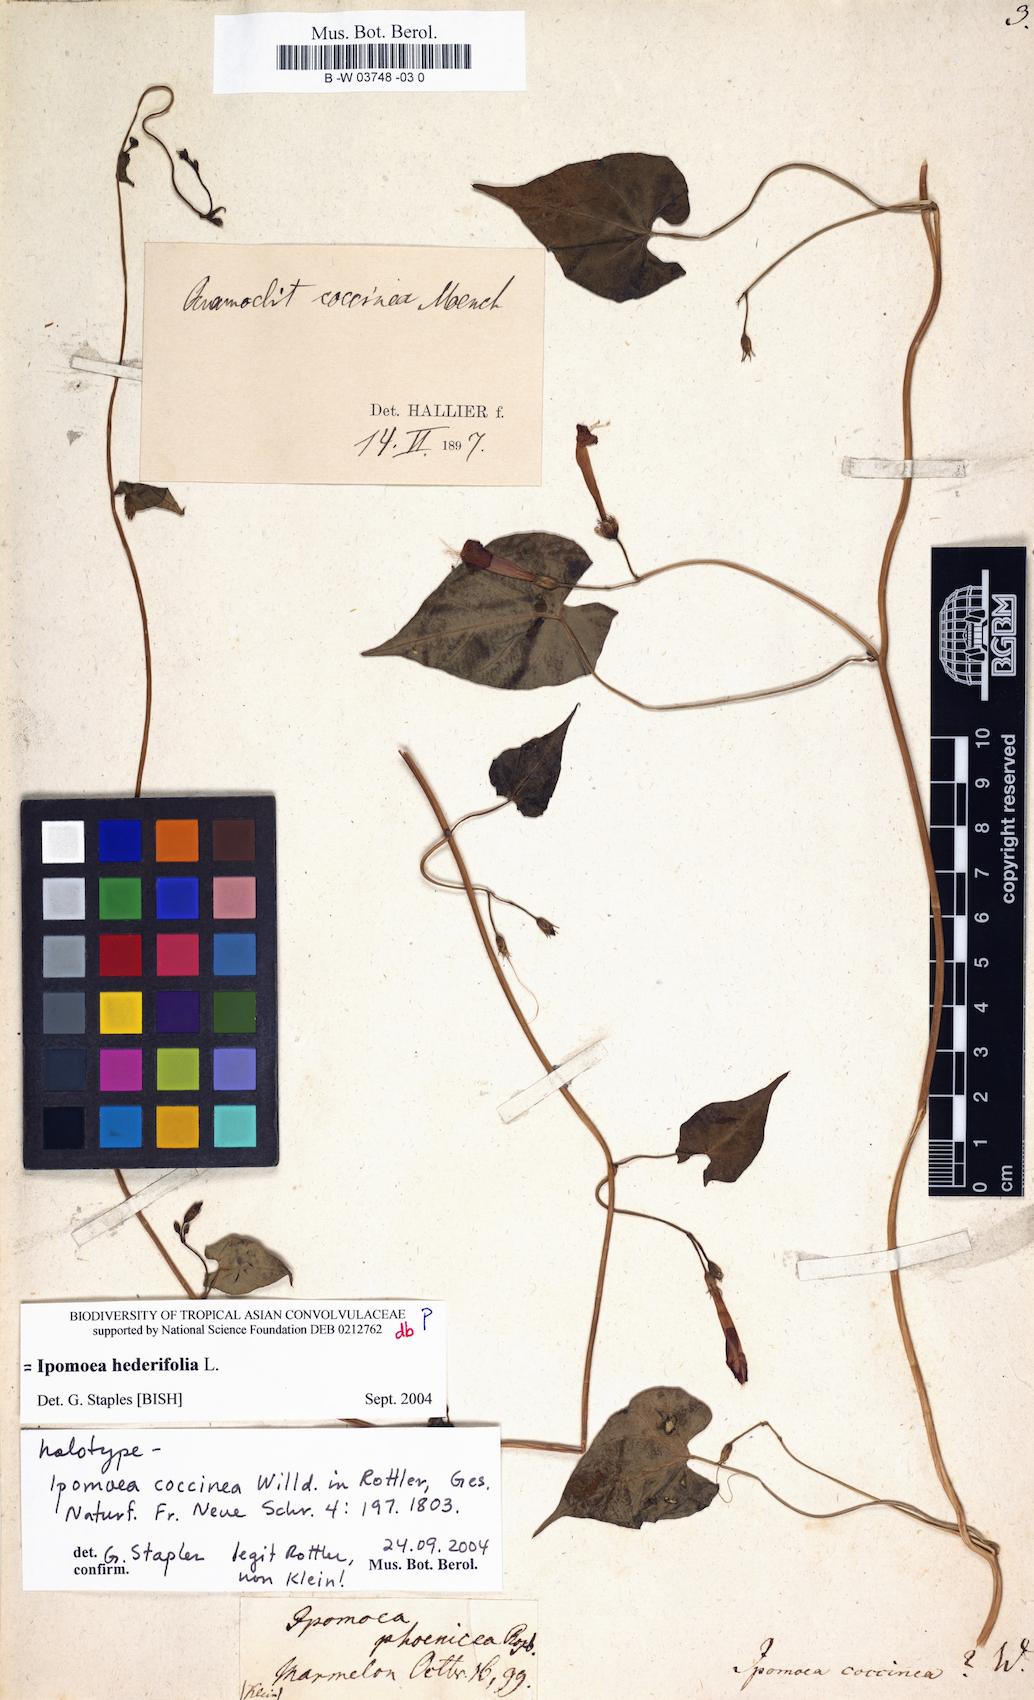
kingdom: Plantae
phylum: Tracheophyta
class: Magnoliopsida
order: Solanales
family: Convolvulaceae
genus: Ipomoea
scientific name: Ipomoea coccinea
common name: Red morning-glory
